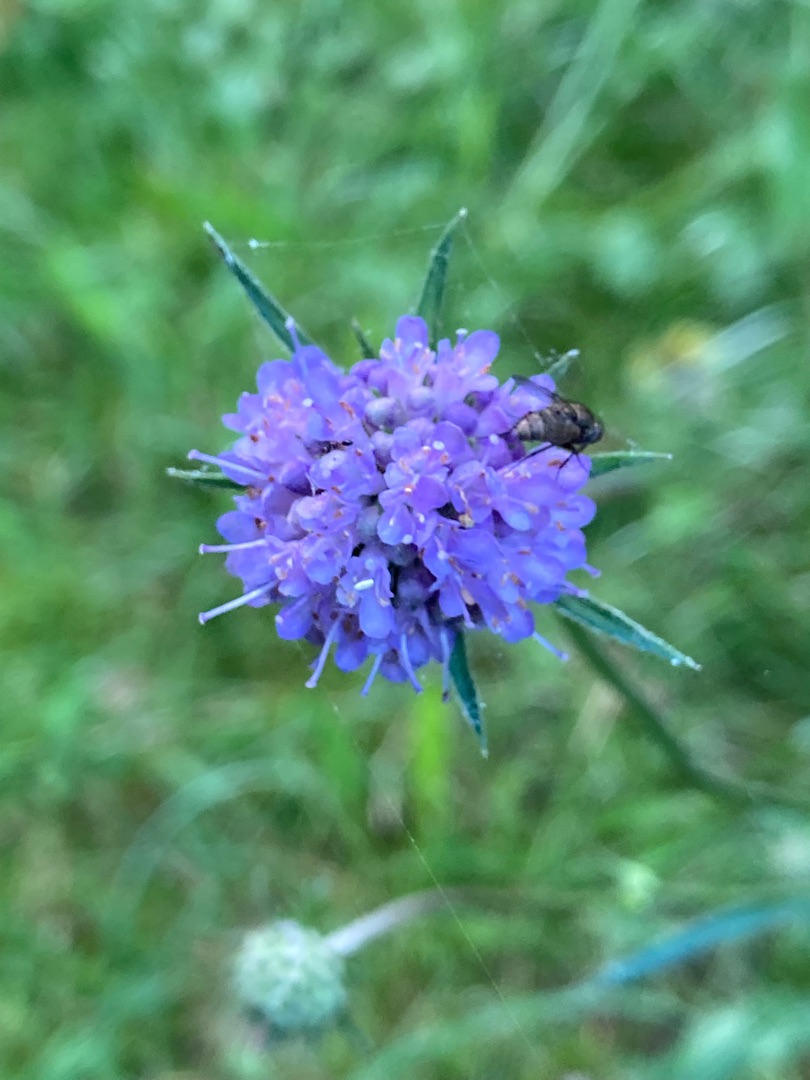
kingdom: Plantae
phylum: Tracheophyta
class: Magnoliopsida
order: Dipsacales
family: Caprifoliaceae
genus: Succisa
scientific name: Succisa pratensis
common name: Djævelsbid
